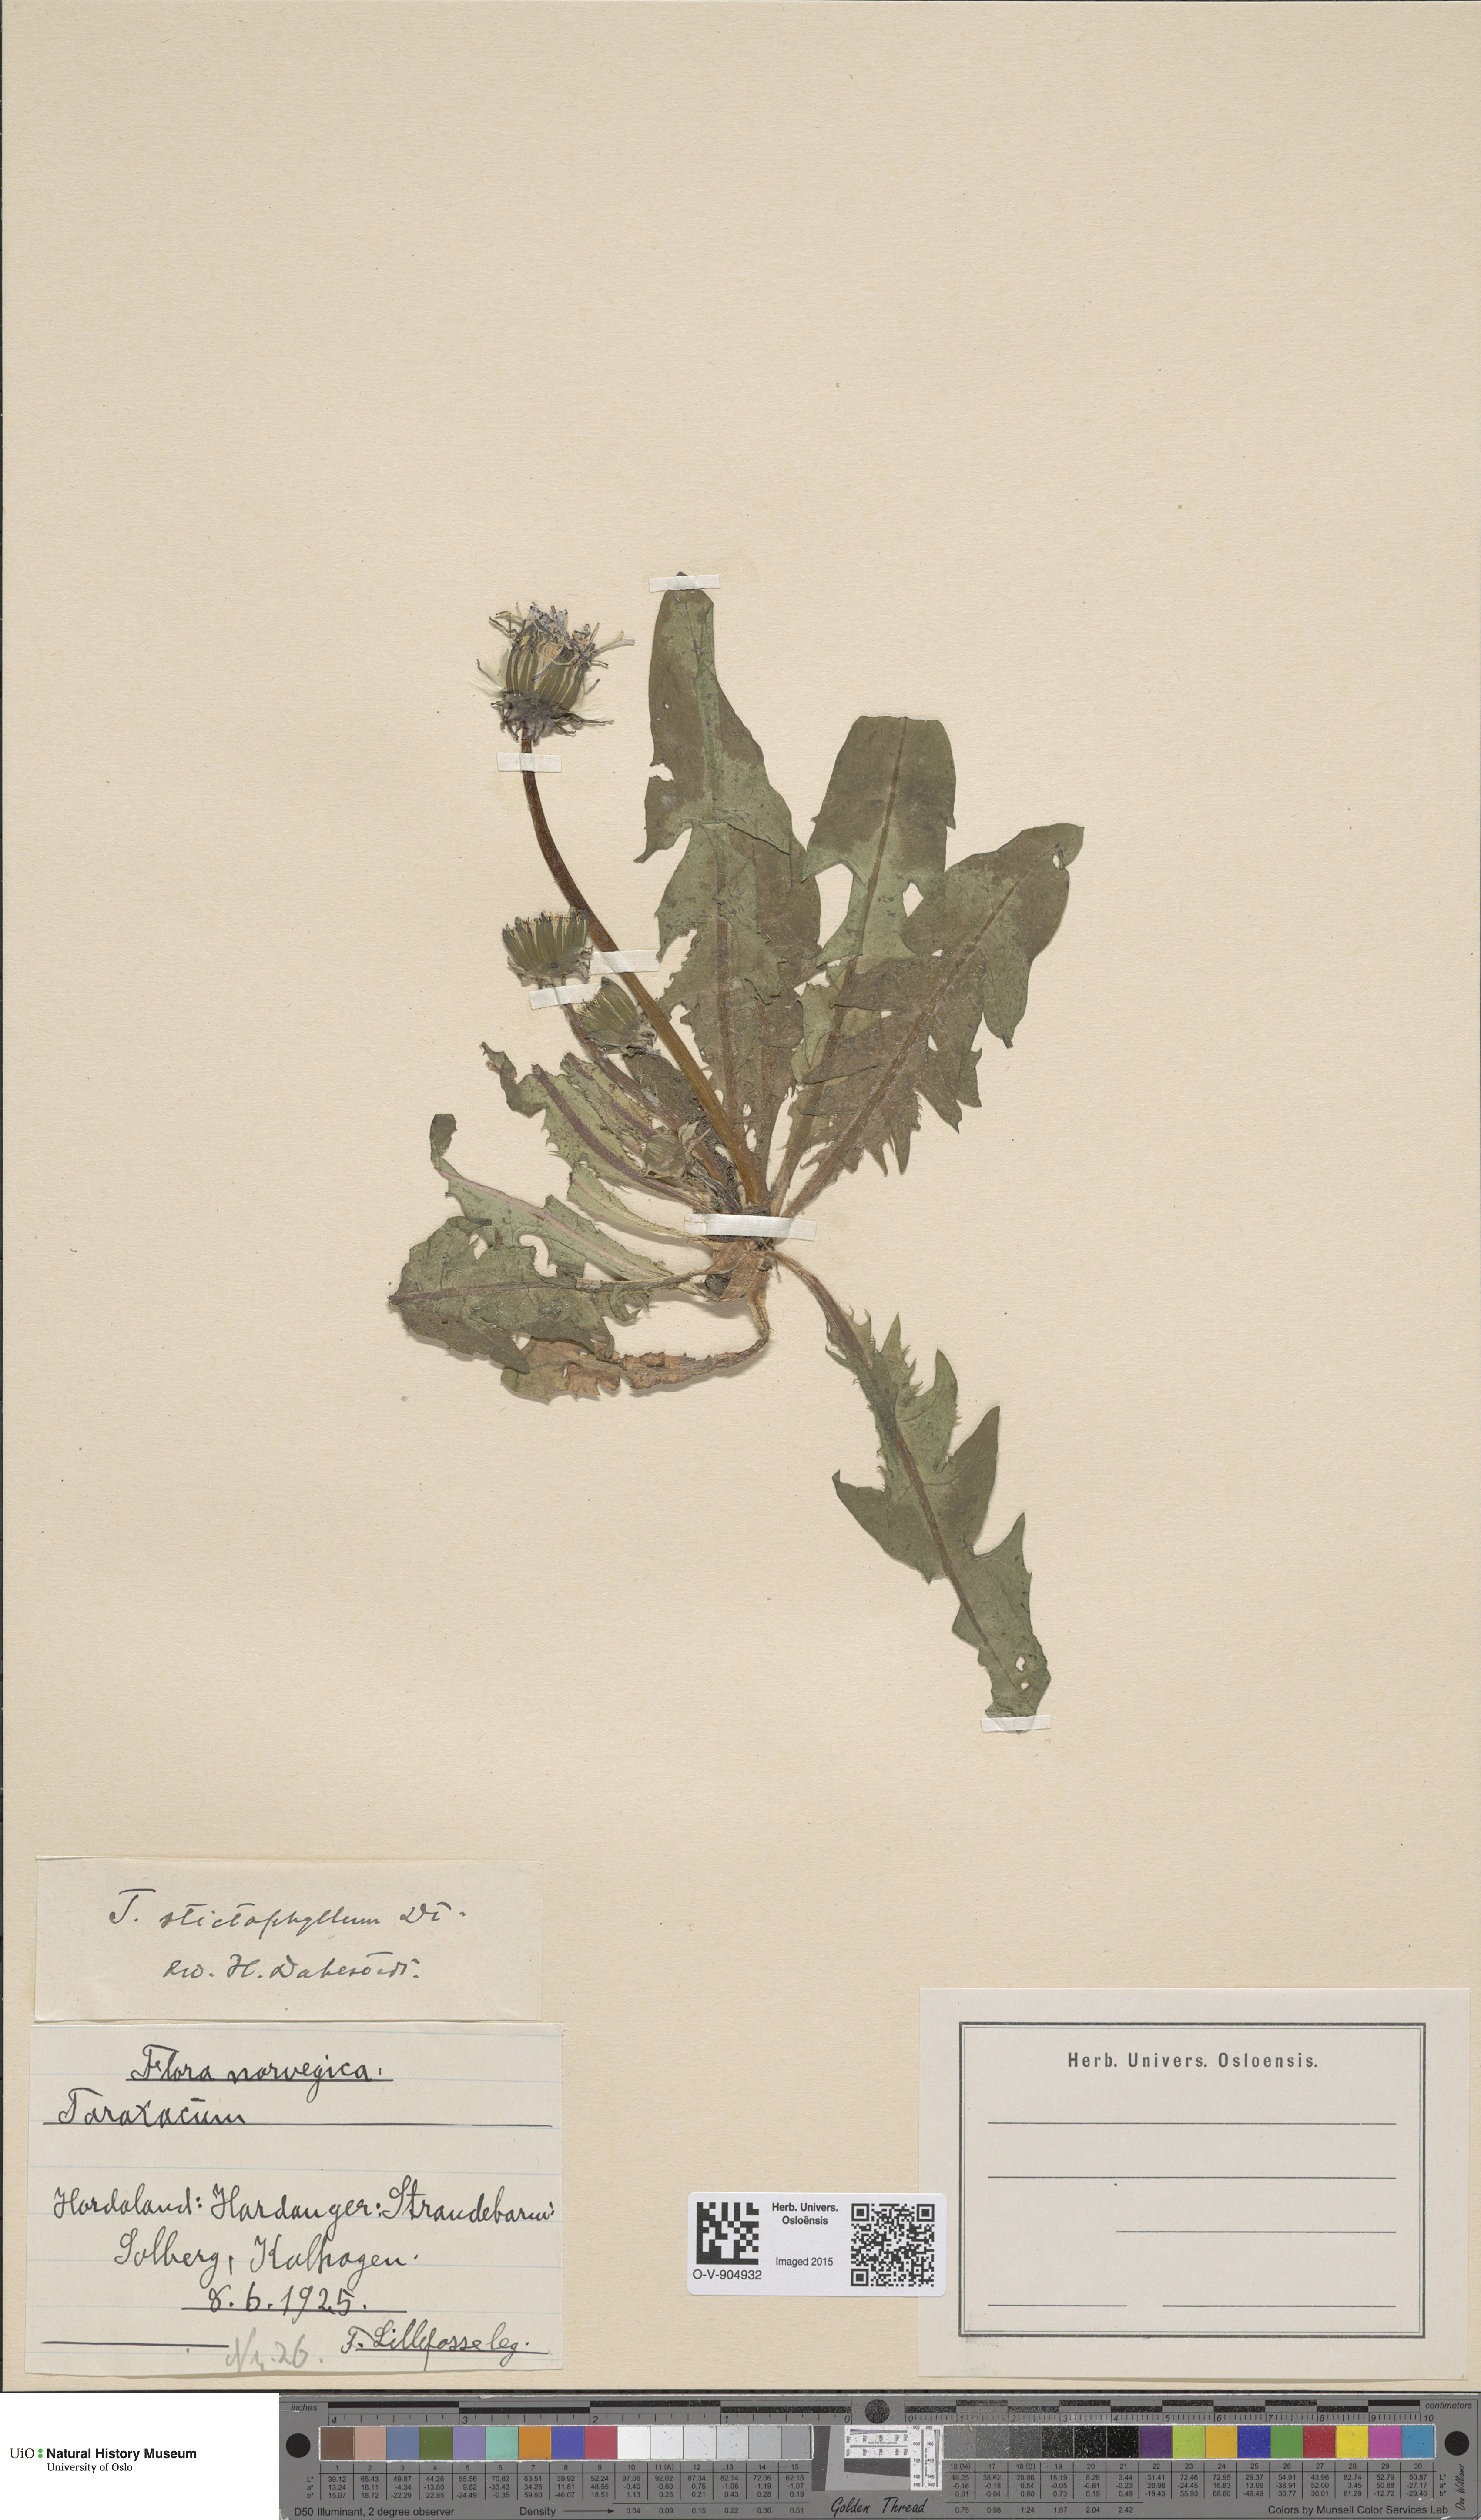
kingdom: Plantae
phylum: Tracheophyta
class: Magnoliopsida
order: Asterales
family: Asteraceae
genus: Taraxacum
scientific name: Taraxacum stictophyllum
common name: Stiff-leaved dandelion
